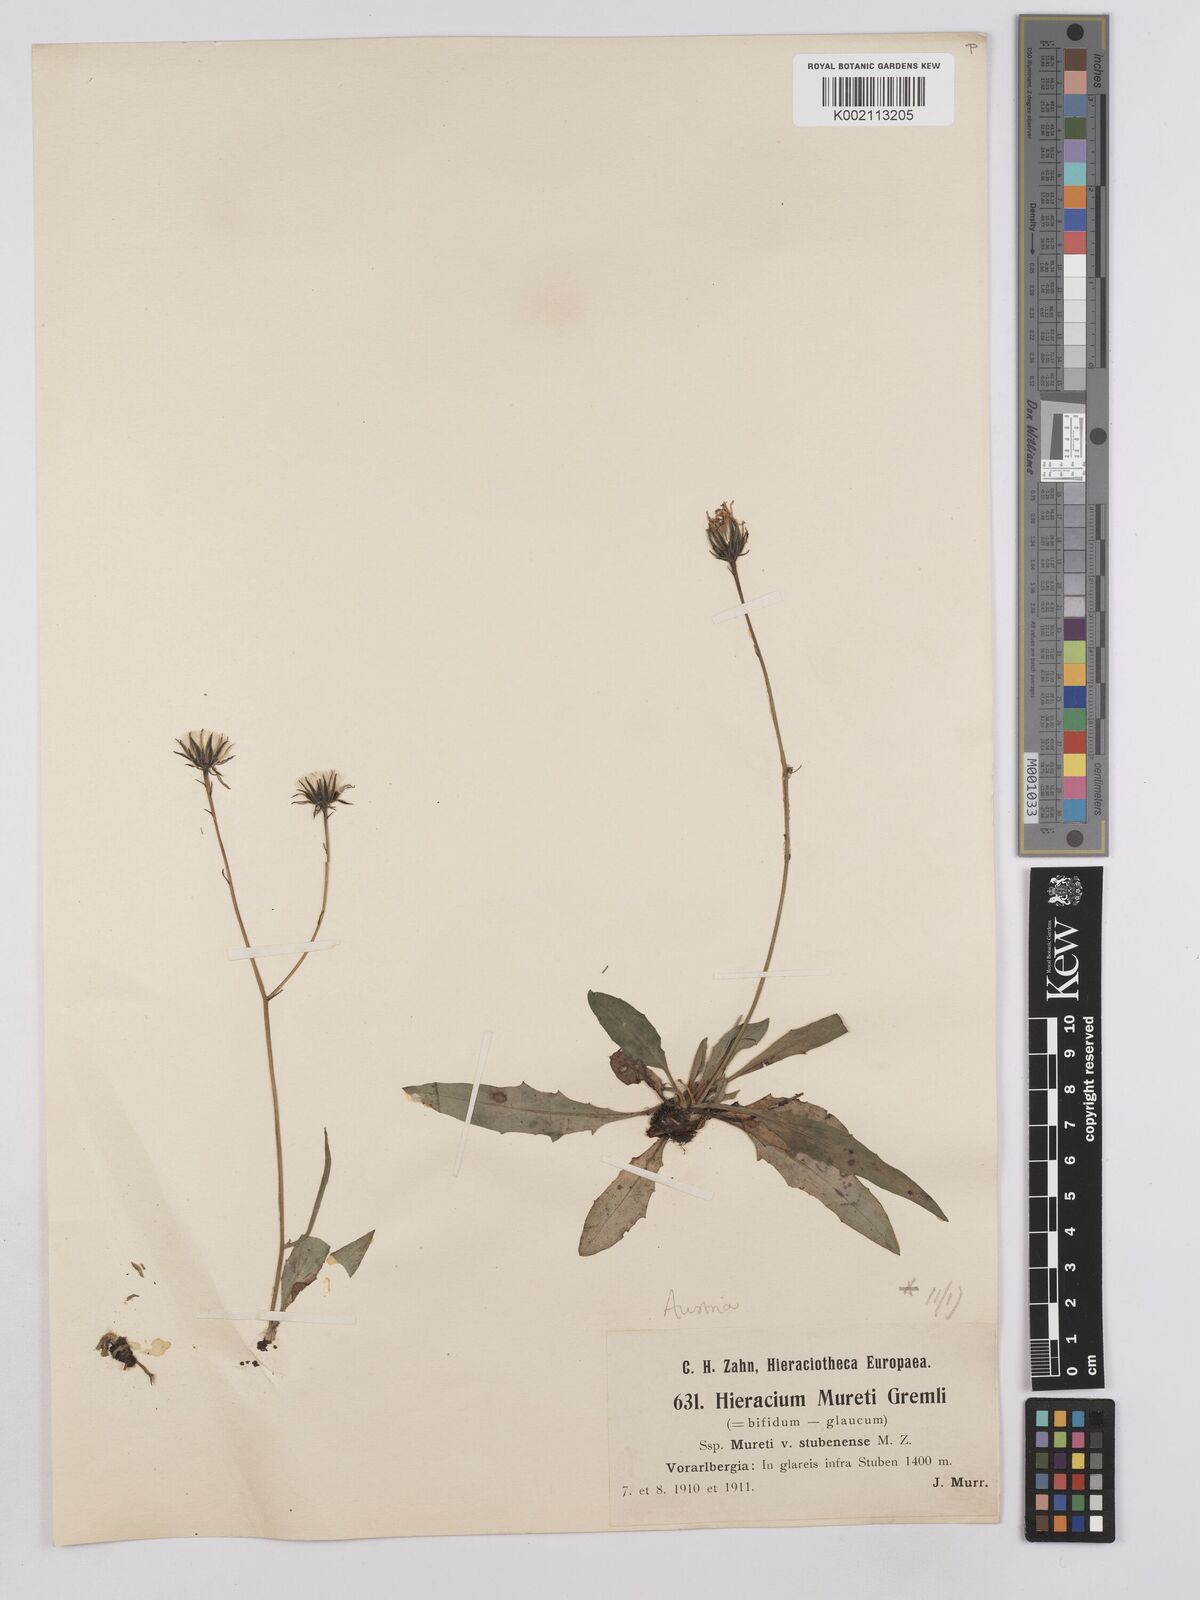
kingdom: Plantae
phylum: Tracheophyta
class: Magnoliopsida
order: Asterales
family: Asteraceae
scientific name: Asteraceae
